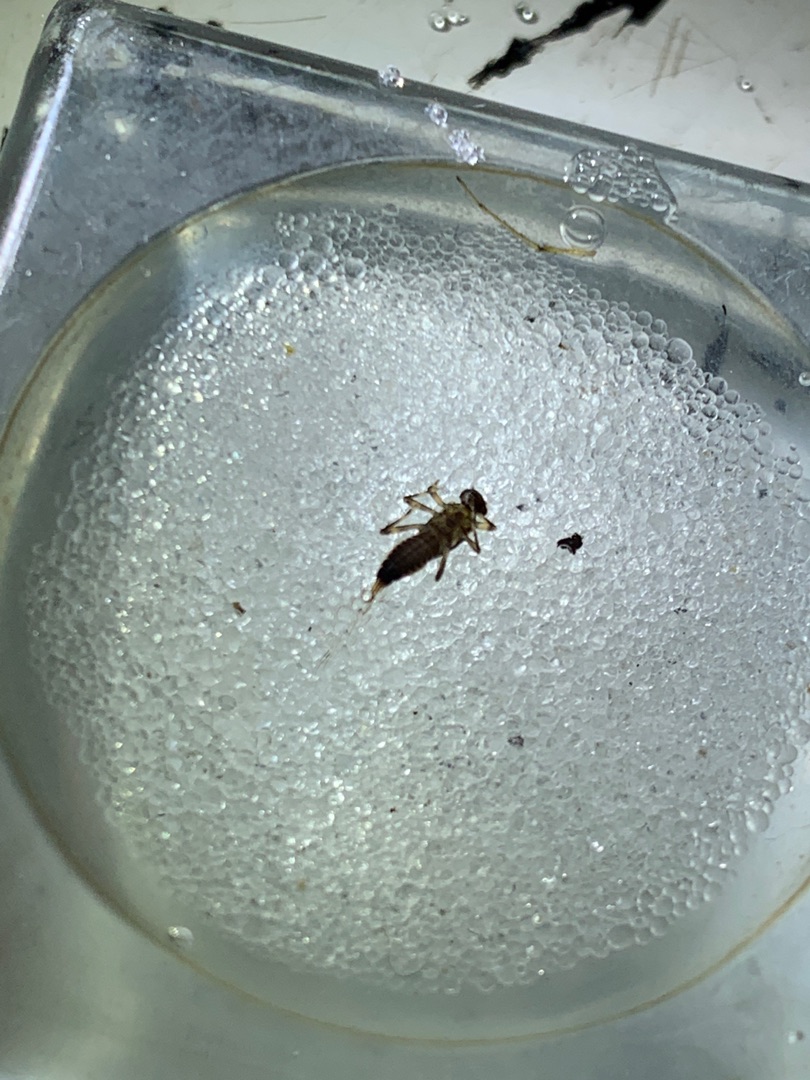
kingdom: Animalia
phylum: Arthropoda
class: Insecta
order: Ephemeroptera
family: Ephemerellidae
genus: Serratella
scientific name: Serratella ignita
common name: Blåvinget sommerdøgnflue
